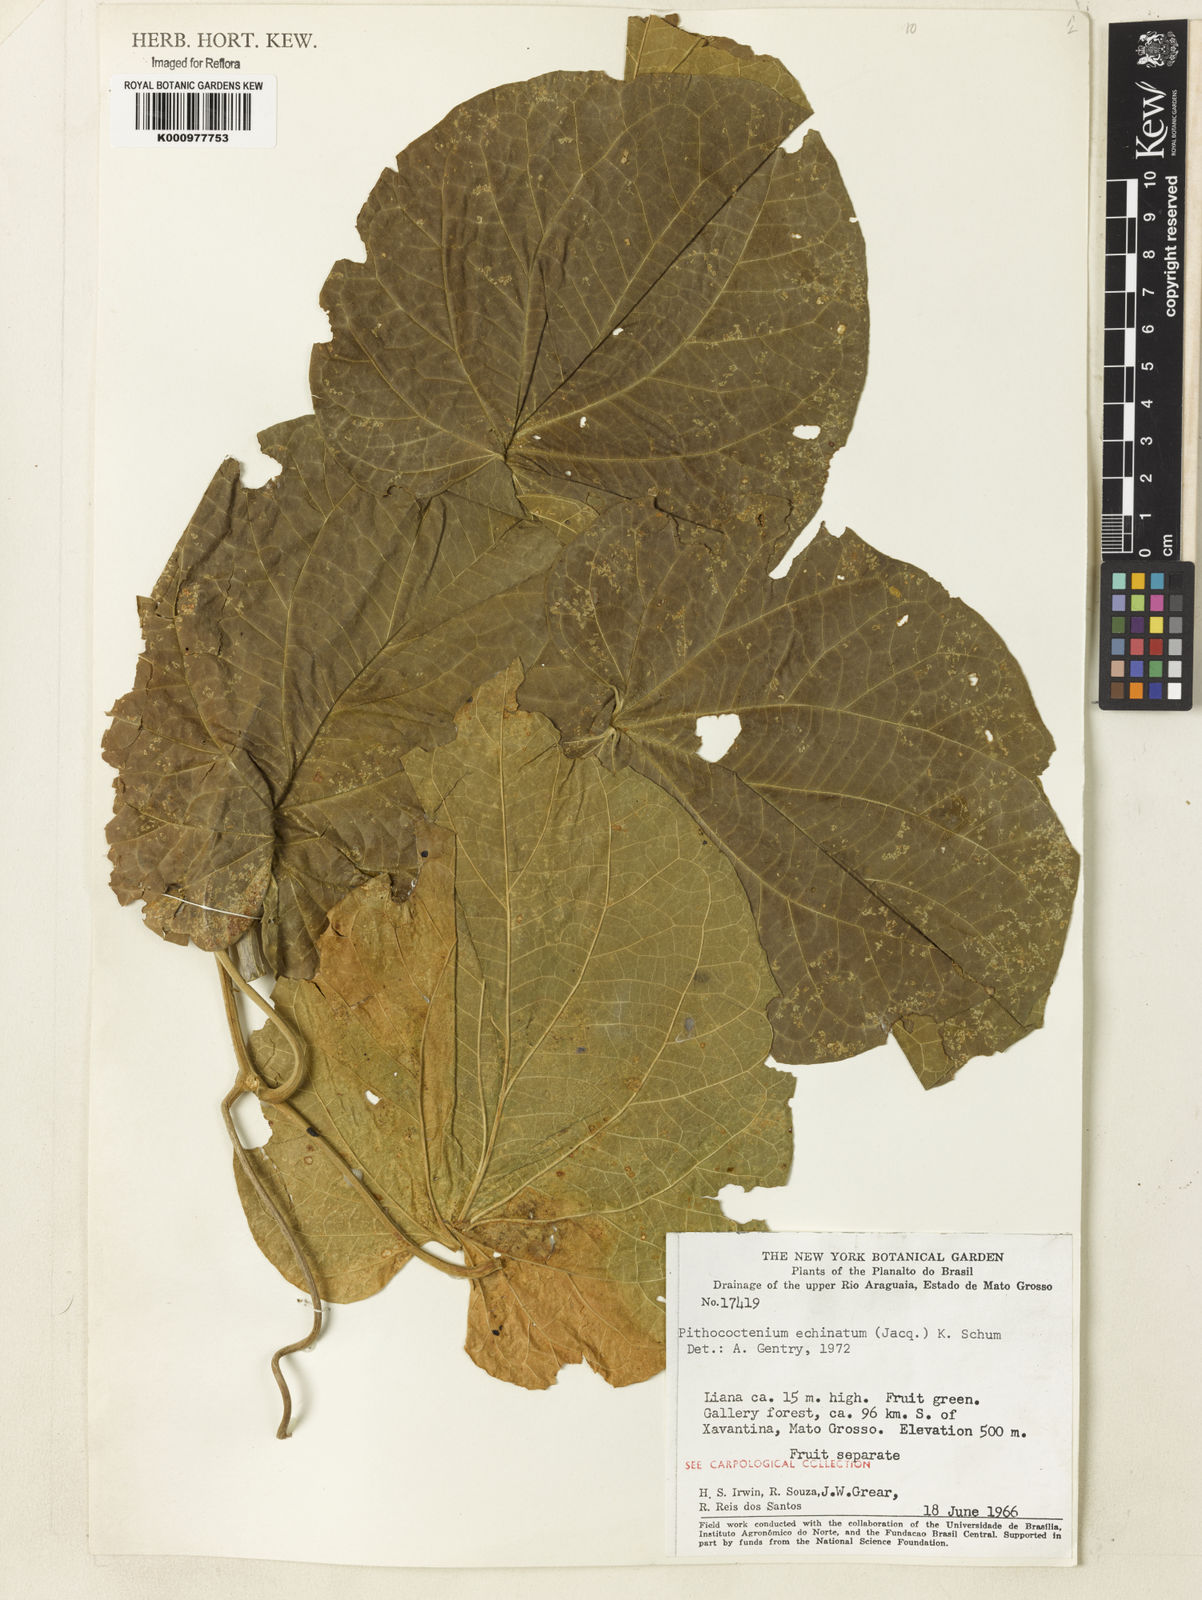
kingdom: Plantae
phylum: Tracheophyta
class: Magnoliopsida
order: Lamiales
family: Bignoniaceae
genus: Amphilophium
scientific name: Amphilophium crucigerum
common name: Monkey comb
